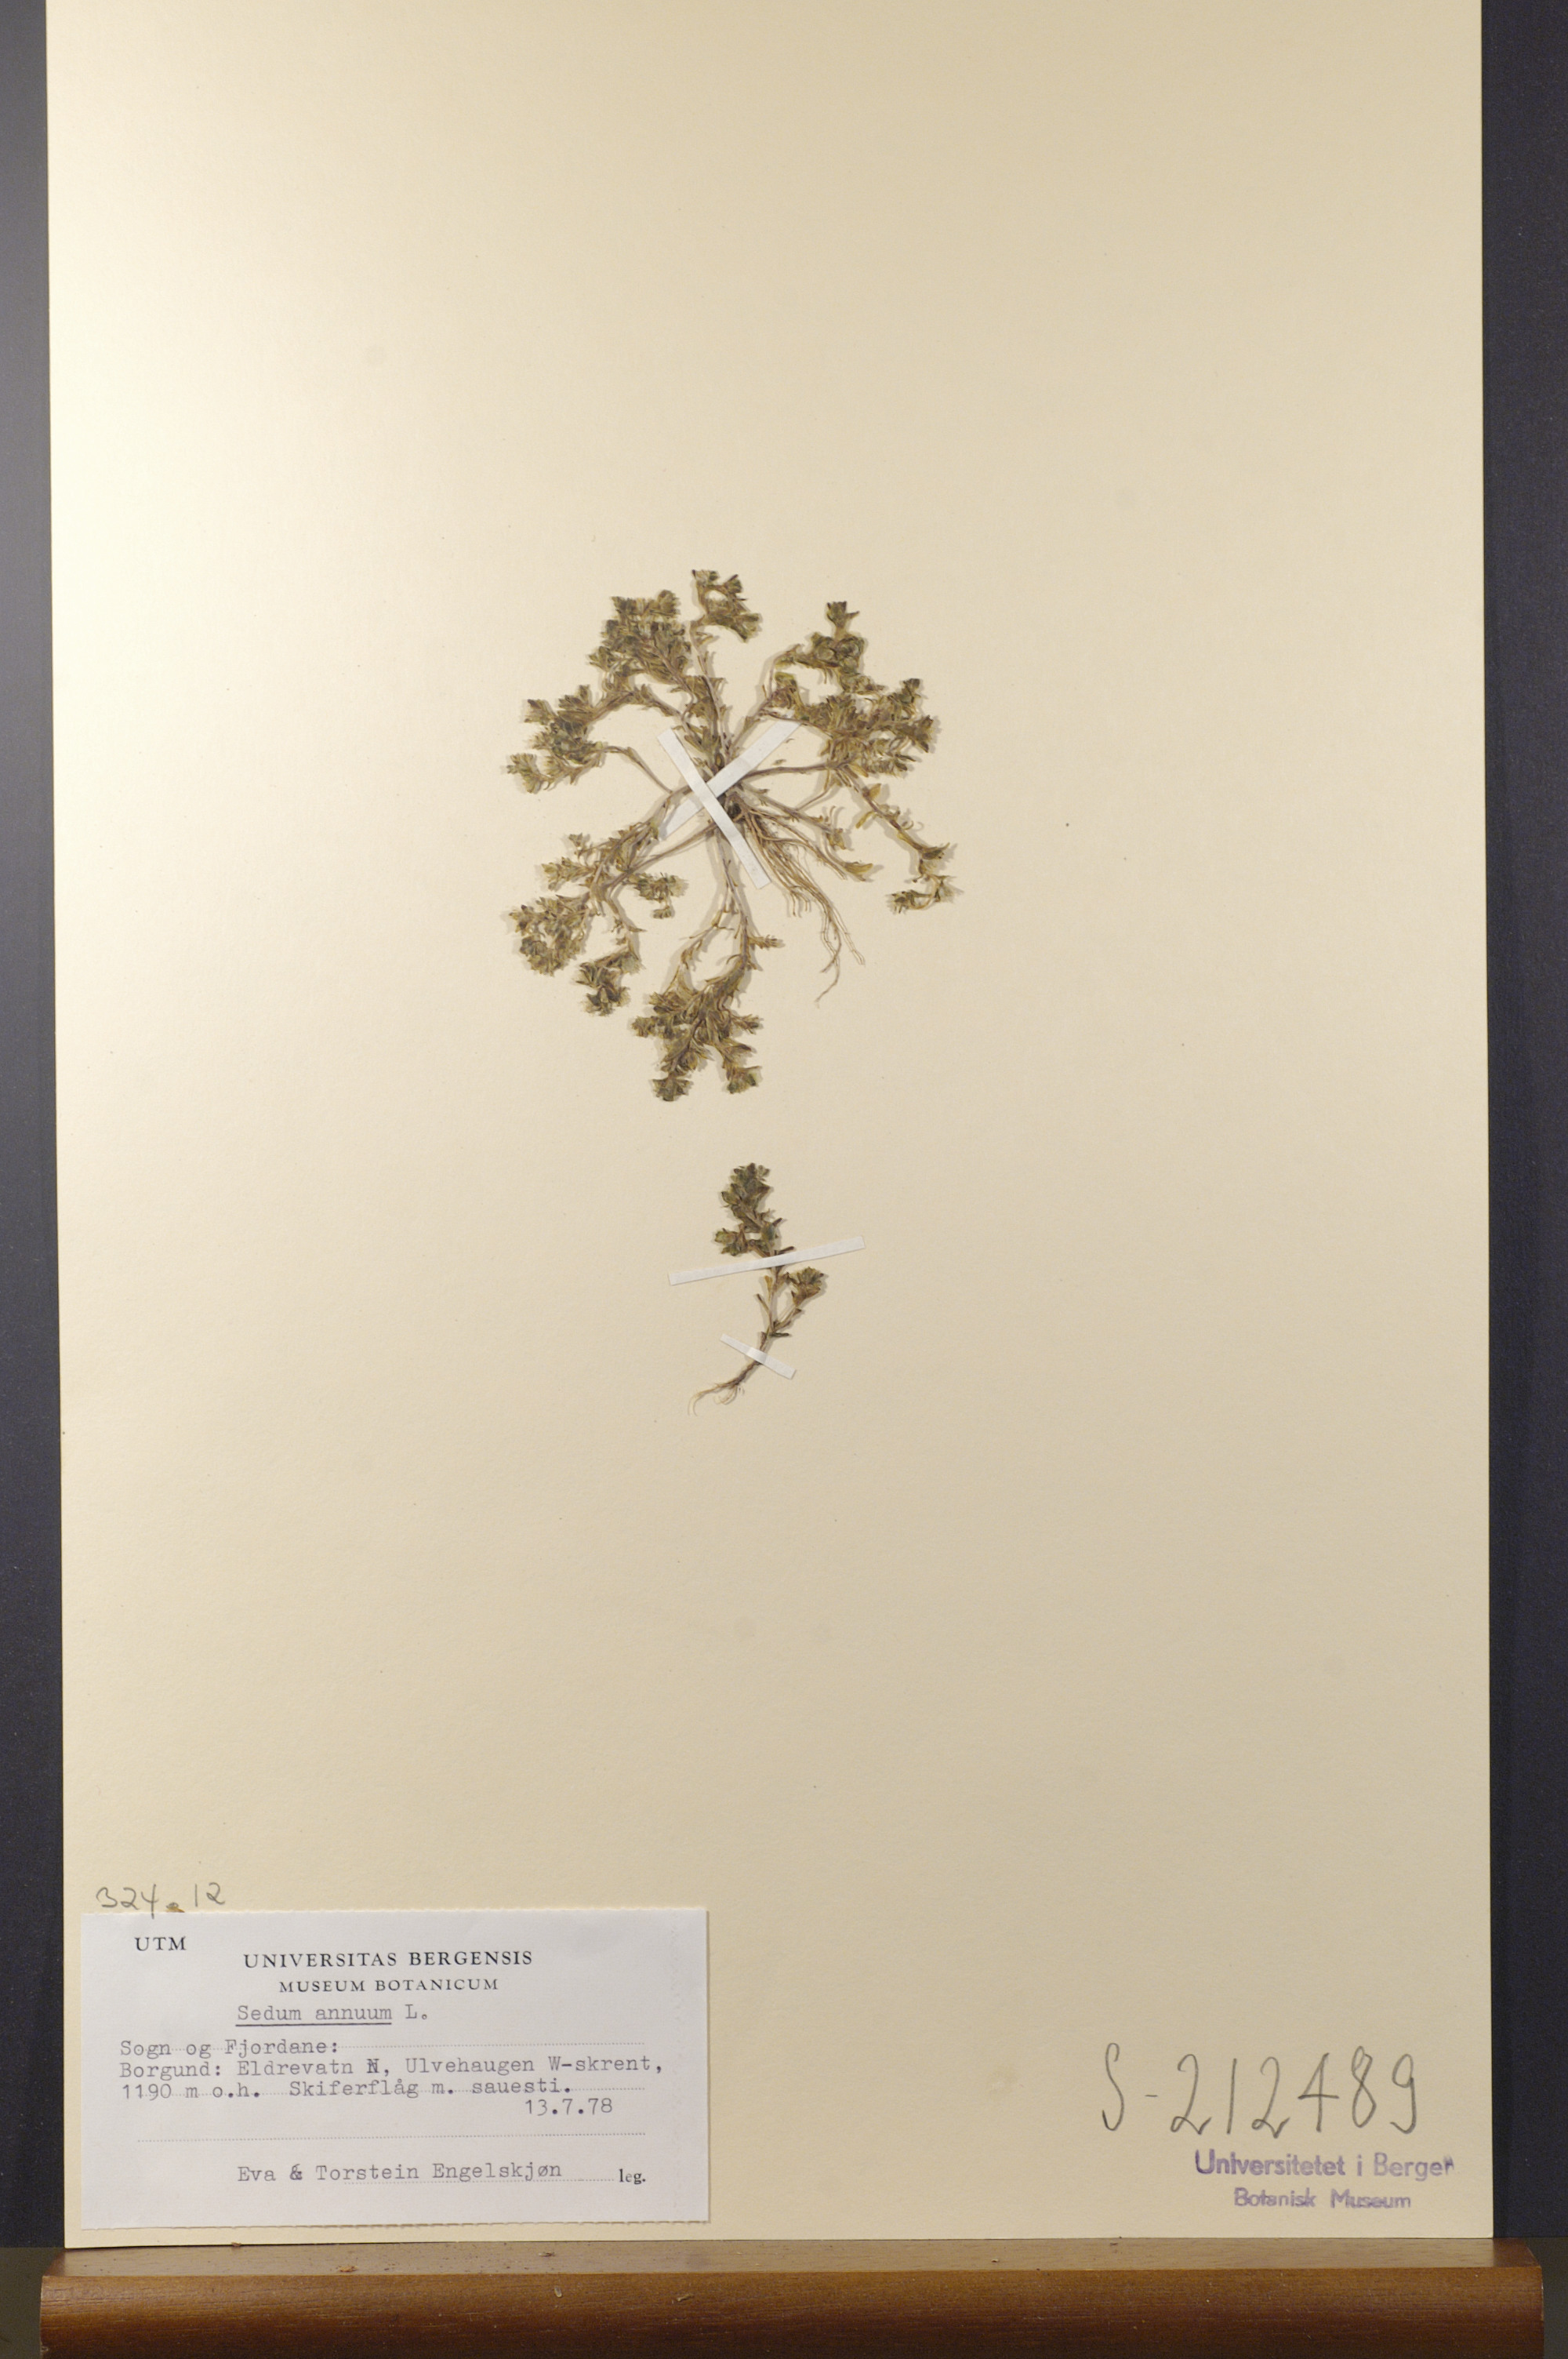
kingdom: Plantae
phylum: Tracheophyta
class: Magnoliopsida
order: Saxifragales
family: Crassulaceae
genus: Sedum
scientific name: Sedum annuum
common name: Annual stonecrop
